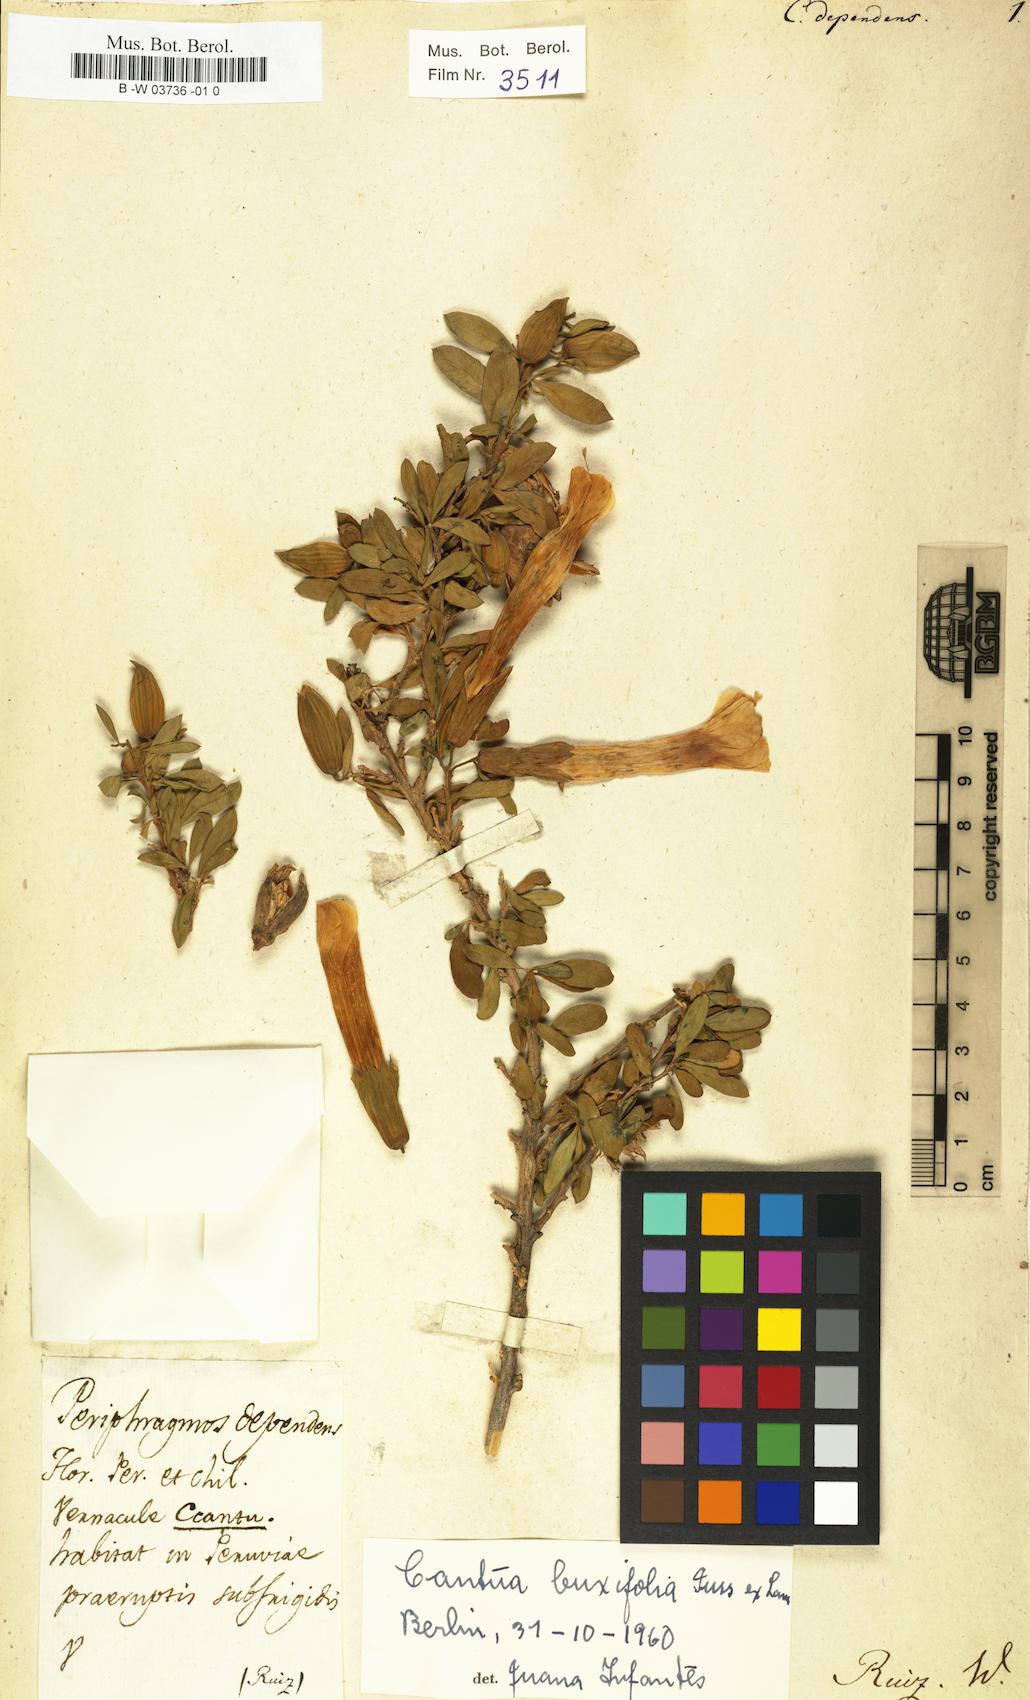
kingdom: Plantae
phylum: Tracheophyta
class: Magnoliopsida
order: Ericales
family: Polemoniaceae
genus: Cantua
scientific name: Cantua buxifolia
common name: Sacred-flower-of-the-incas
